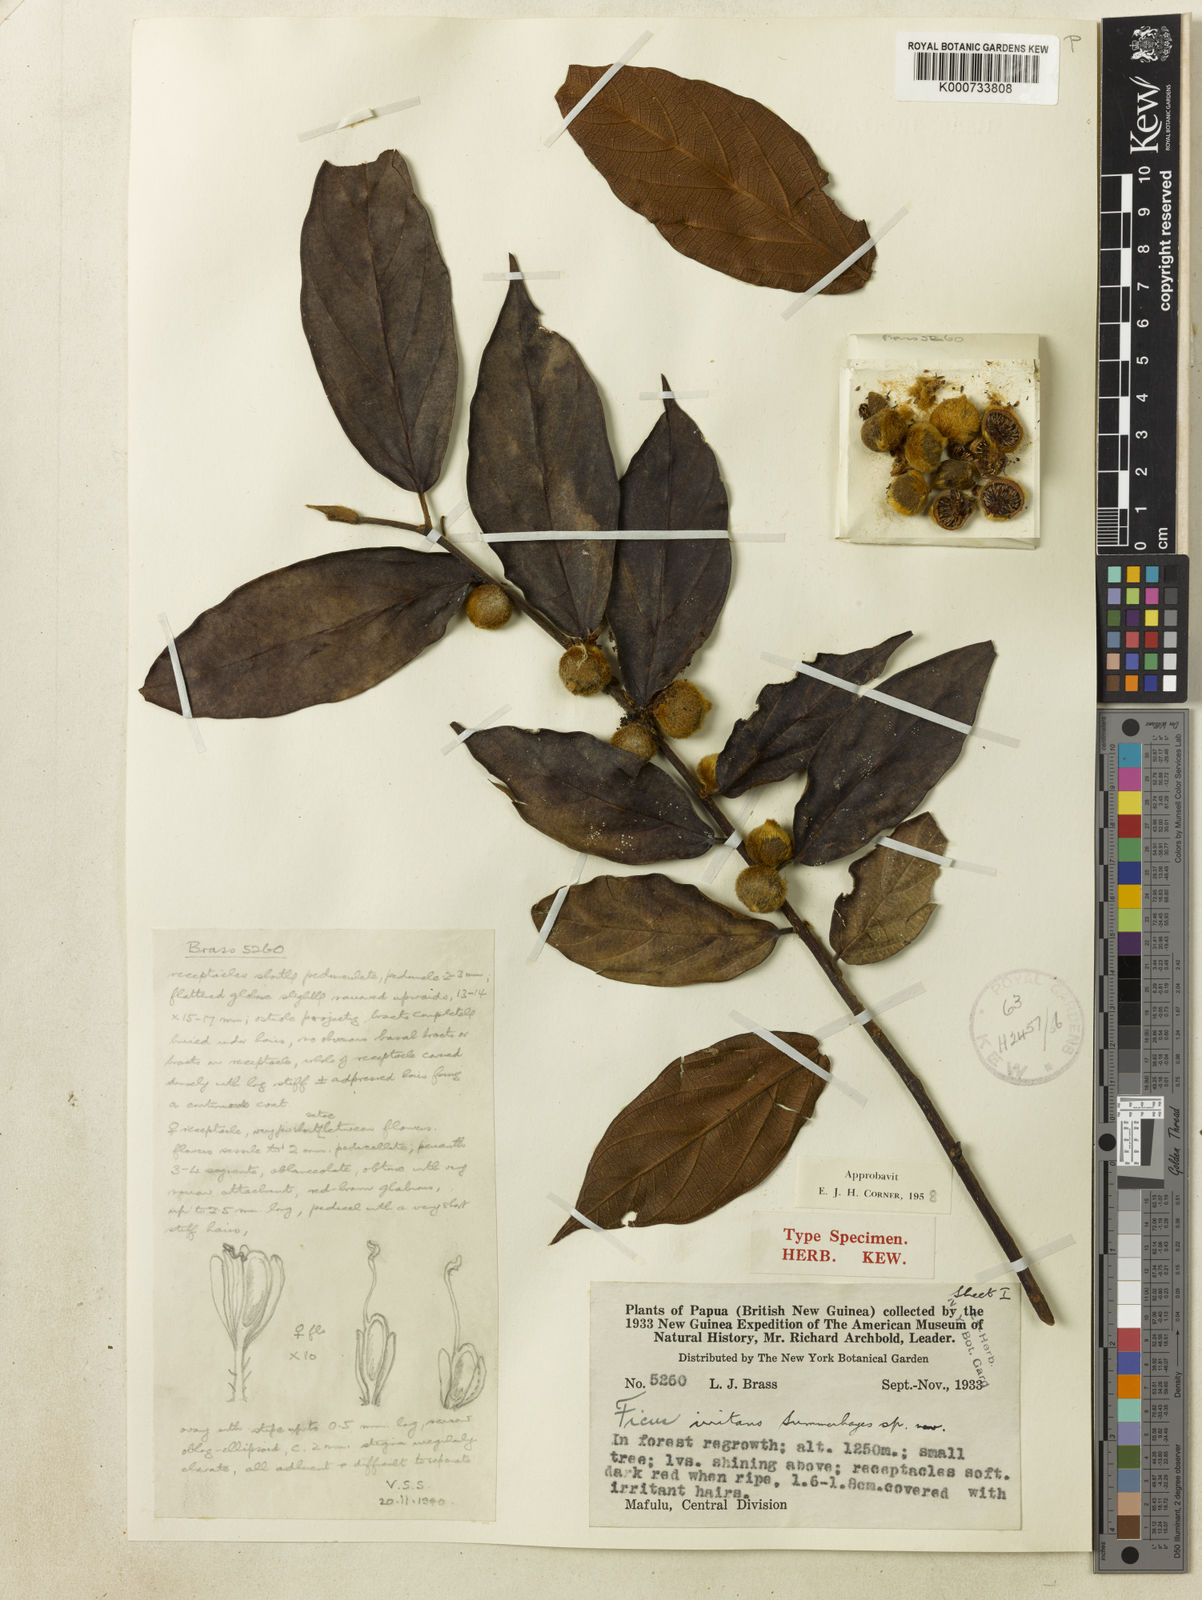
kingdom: Plantae
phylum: Tracheophyta
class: Magnoliopsida
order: Rosales
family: Moraceae
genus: Ficus
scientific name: Ficus odoardi
